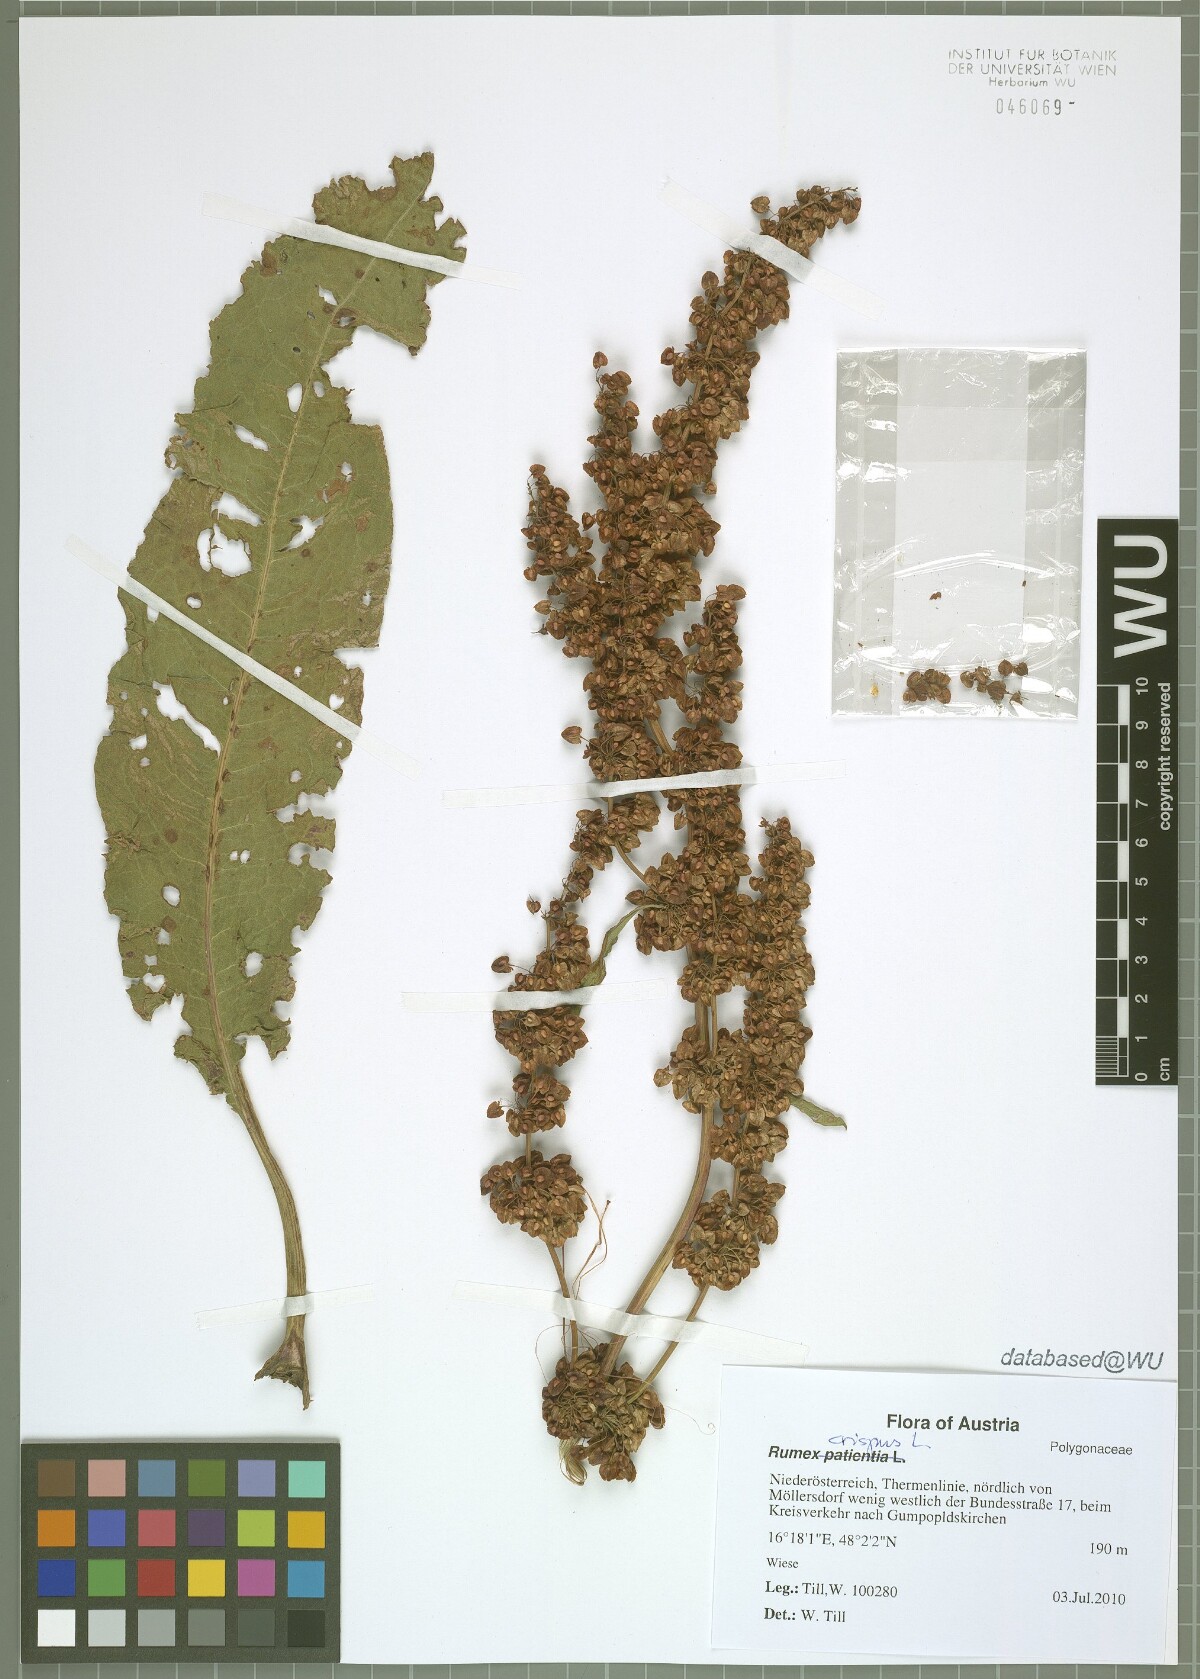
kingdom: Plantae
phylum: Tracheophyta
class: Magnoliopsida
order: Caryophyllales
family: Polygonaceae
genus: Rumex
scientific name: Rumex crispus
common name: Curled dock
